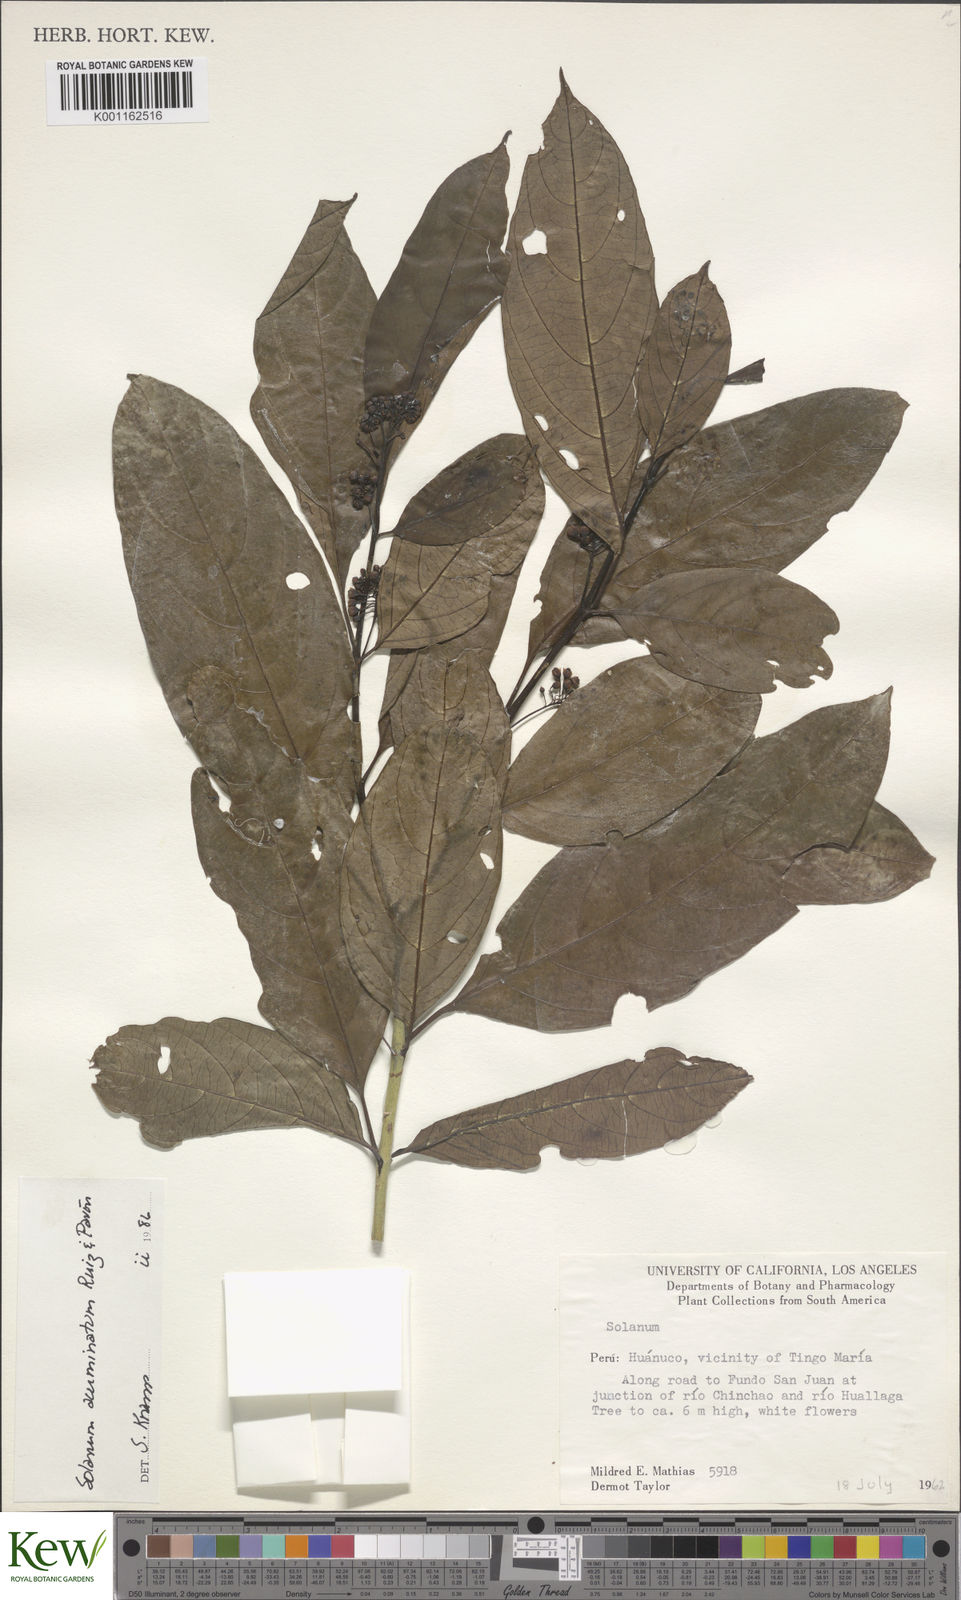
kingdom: Plantae
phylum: Tracheophyta
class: Magnoliopsida
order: Solanales
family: Solanaceae
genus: Solanum
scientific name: Solanum acuminatum
